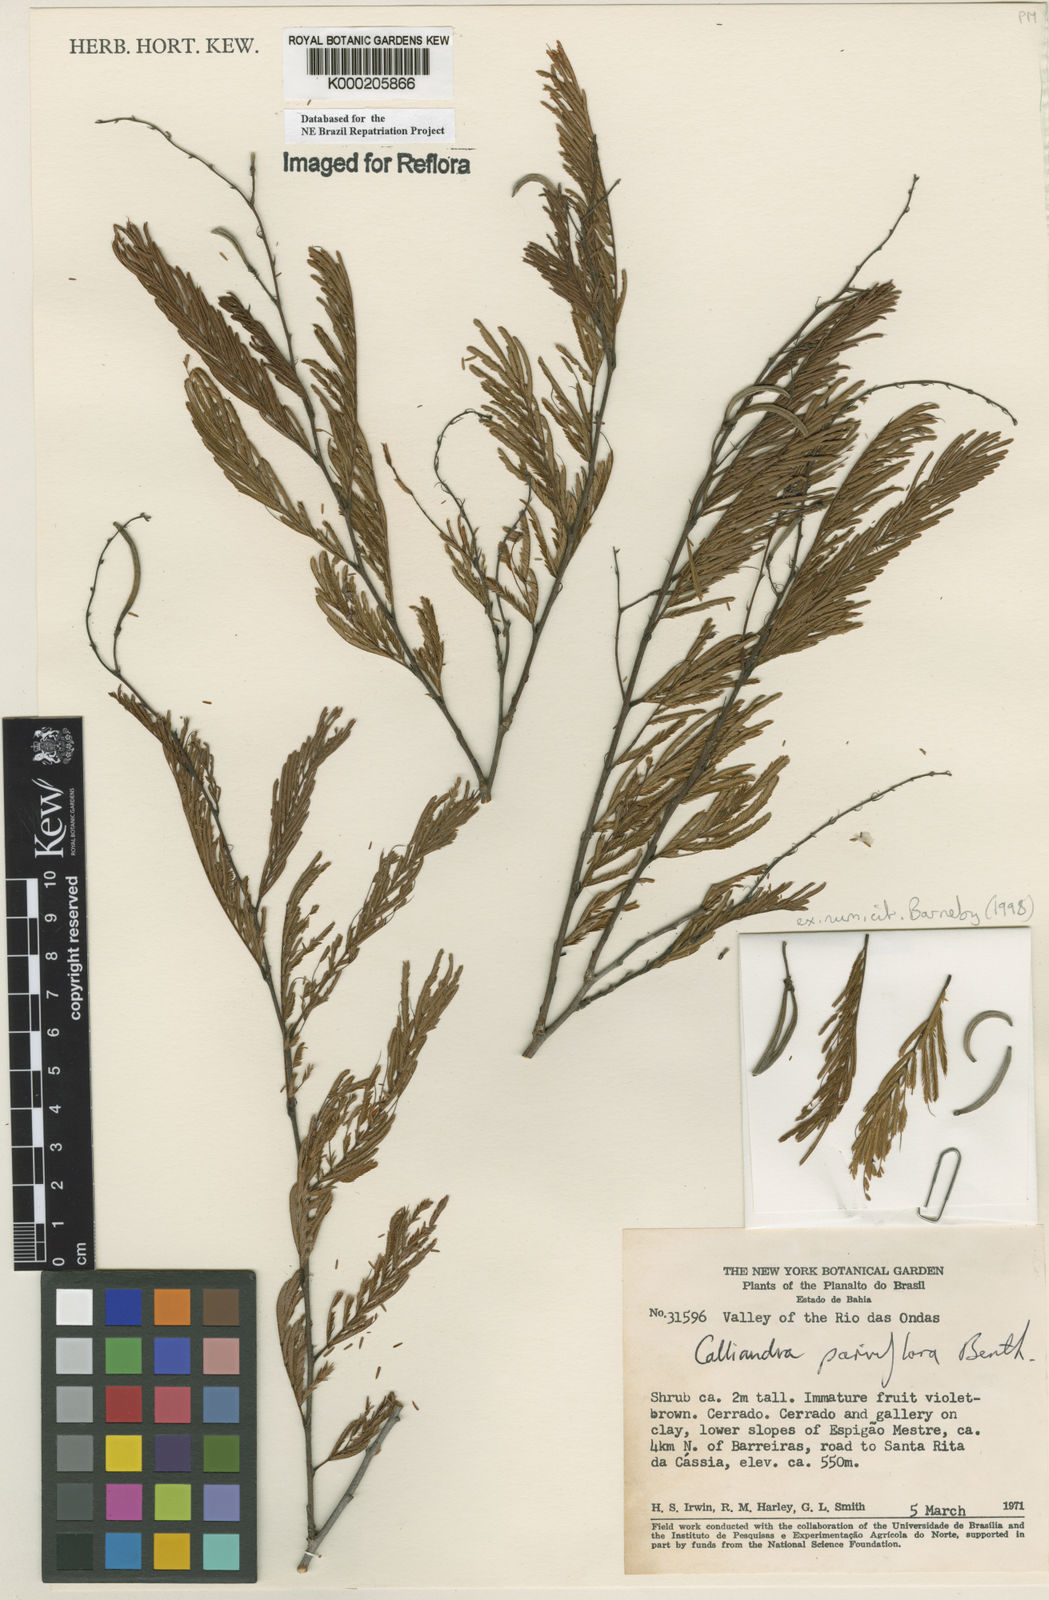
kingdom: Plantae
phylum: Tracheophyta
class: Magnoliopsida
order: Fabales
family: Fabaceae
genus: Calliandra
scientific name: Calliandra parviflora
